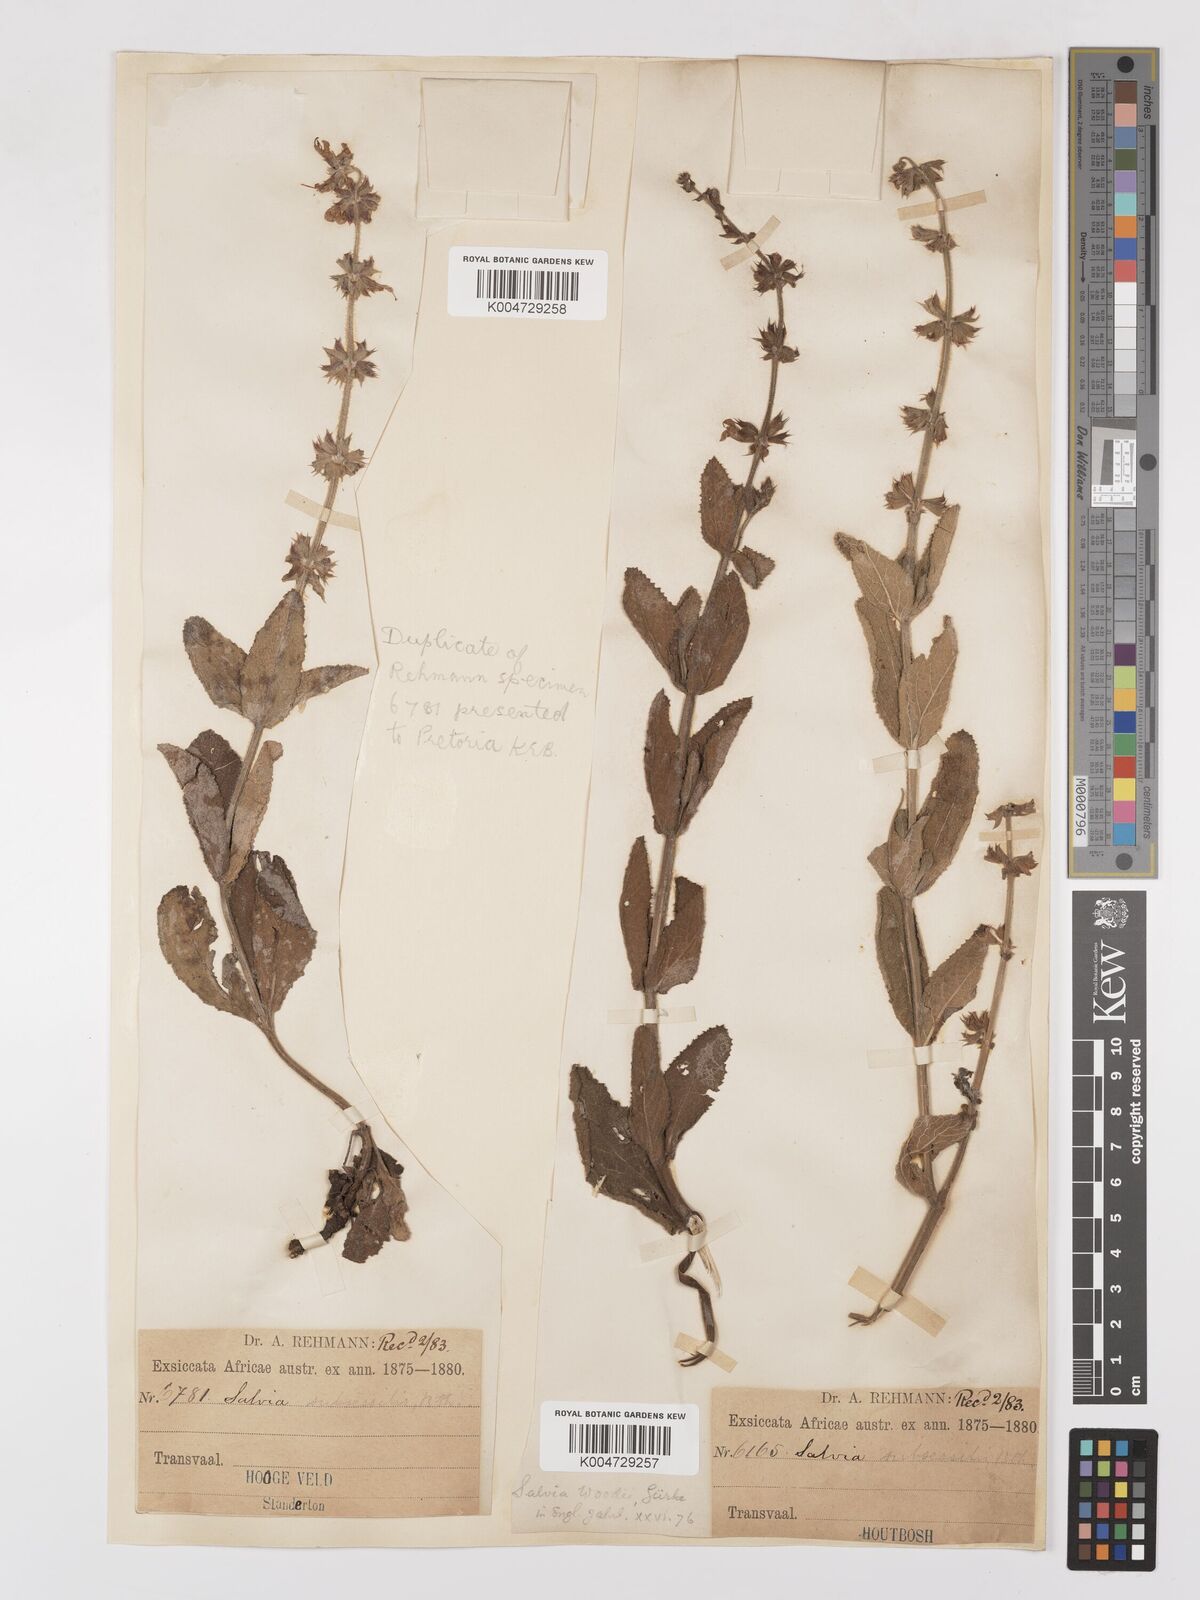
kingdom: Plantae
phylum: Tracheophyta
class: Magnoliopsida
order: Lamiales
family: Lamiaceae
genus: Salvia
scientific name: Salvia repens
